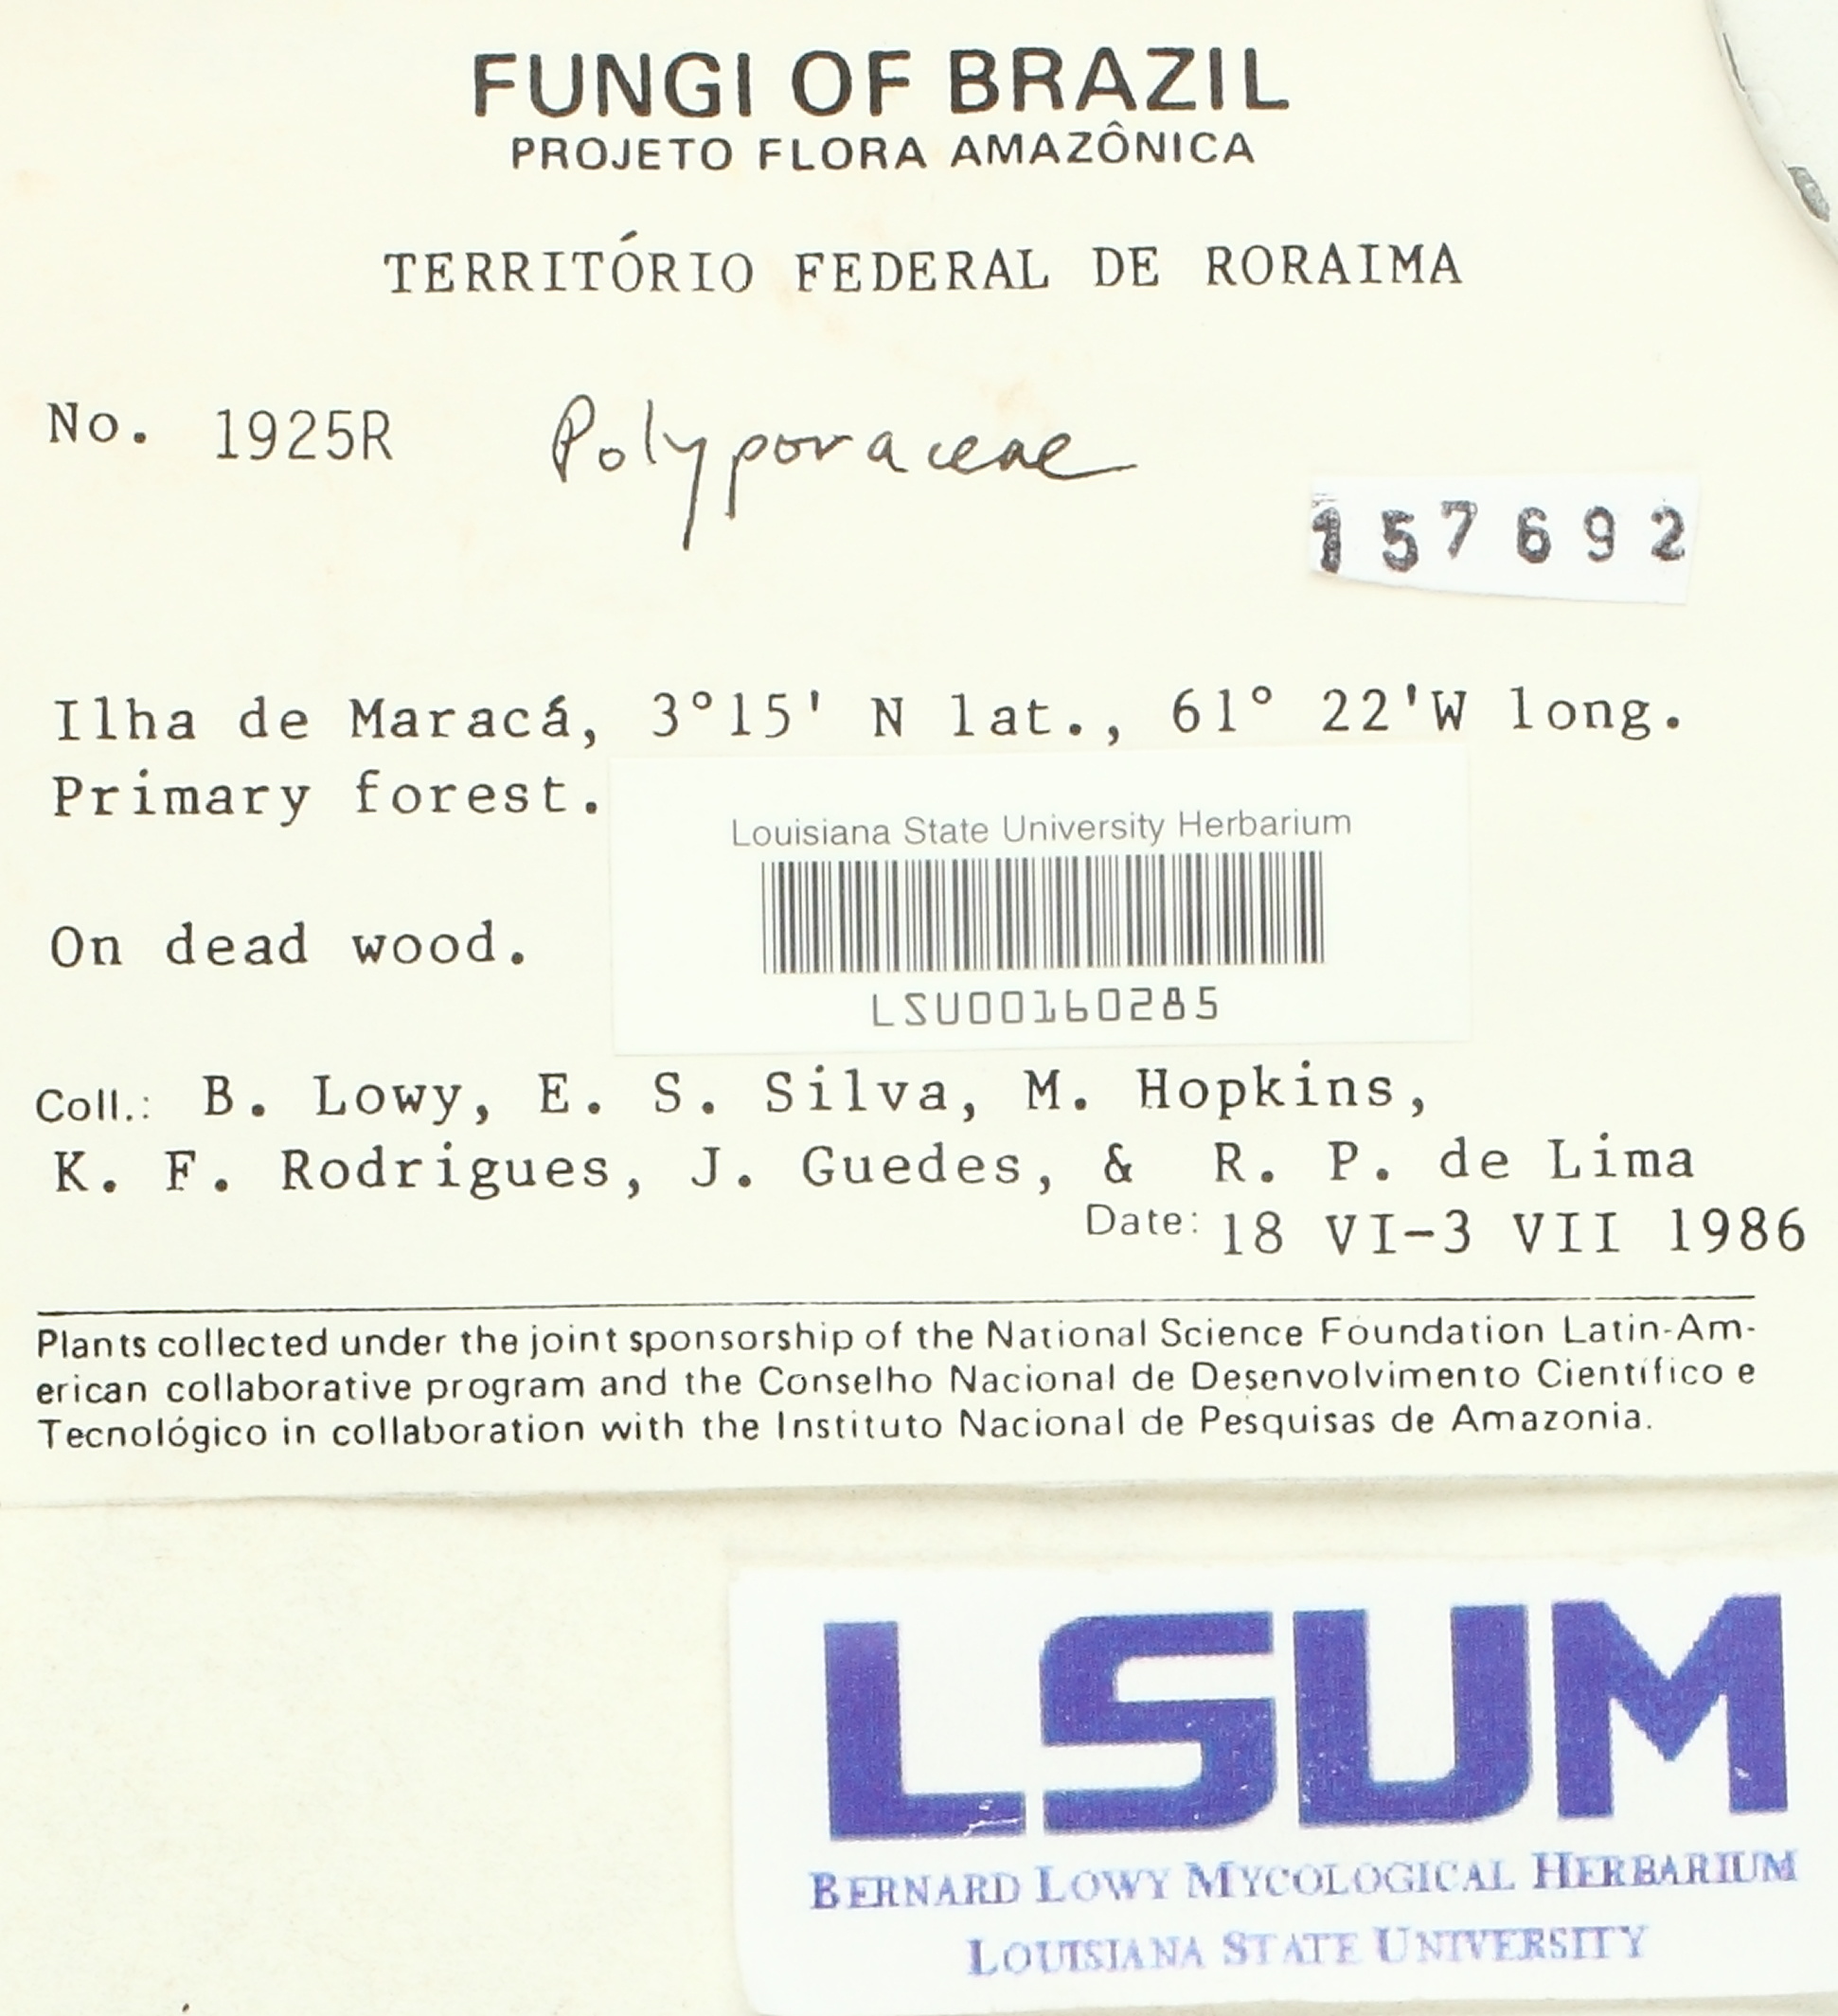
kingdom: Fungi
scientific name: Fungi
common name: Fungi
